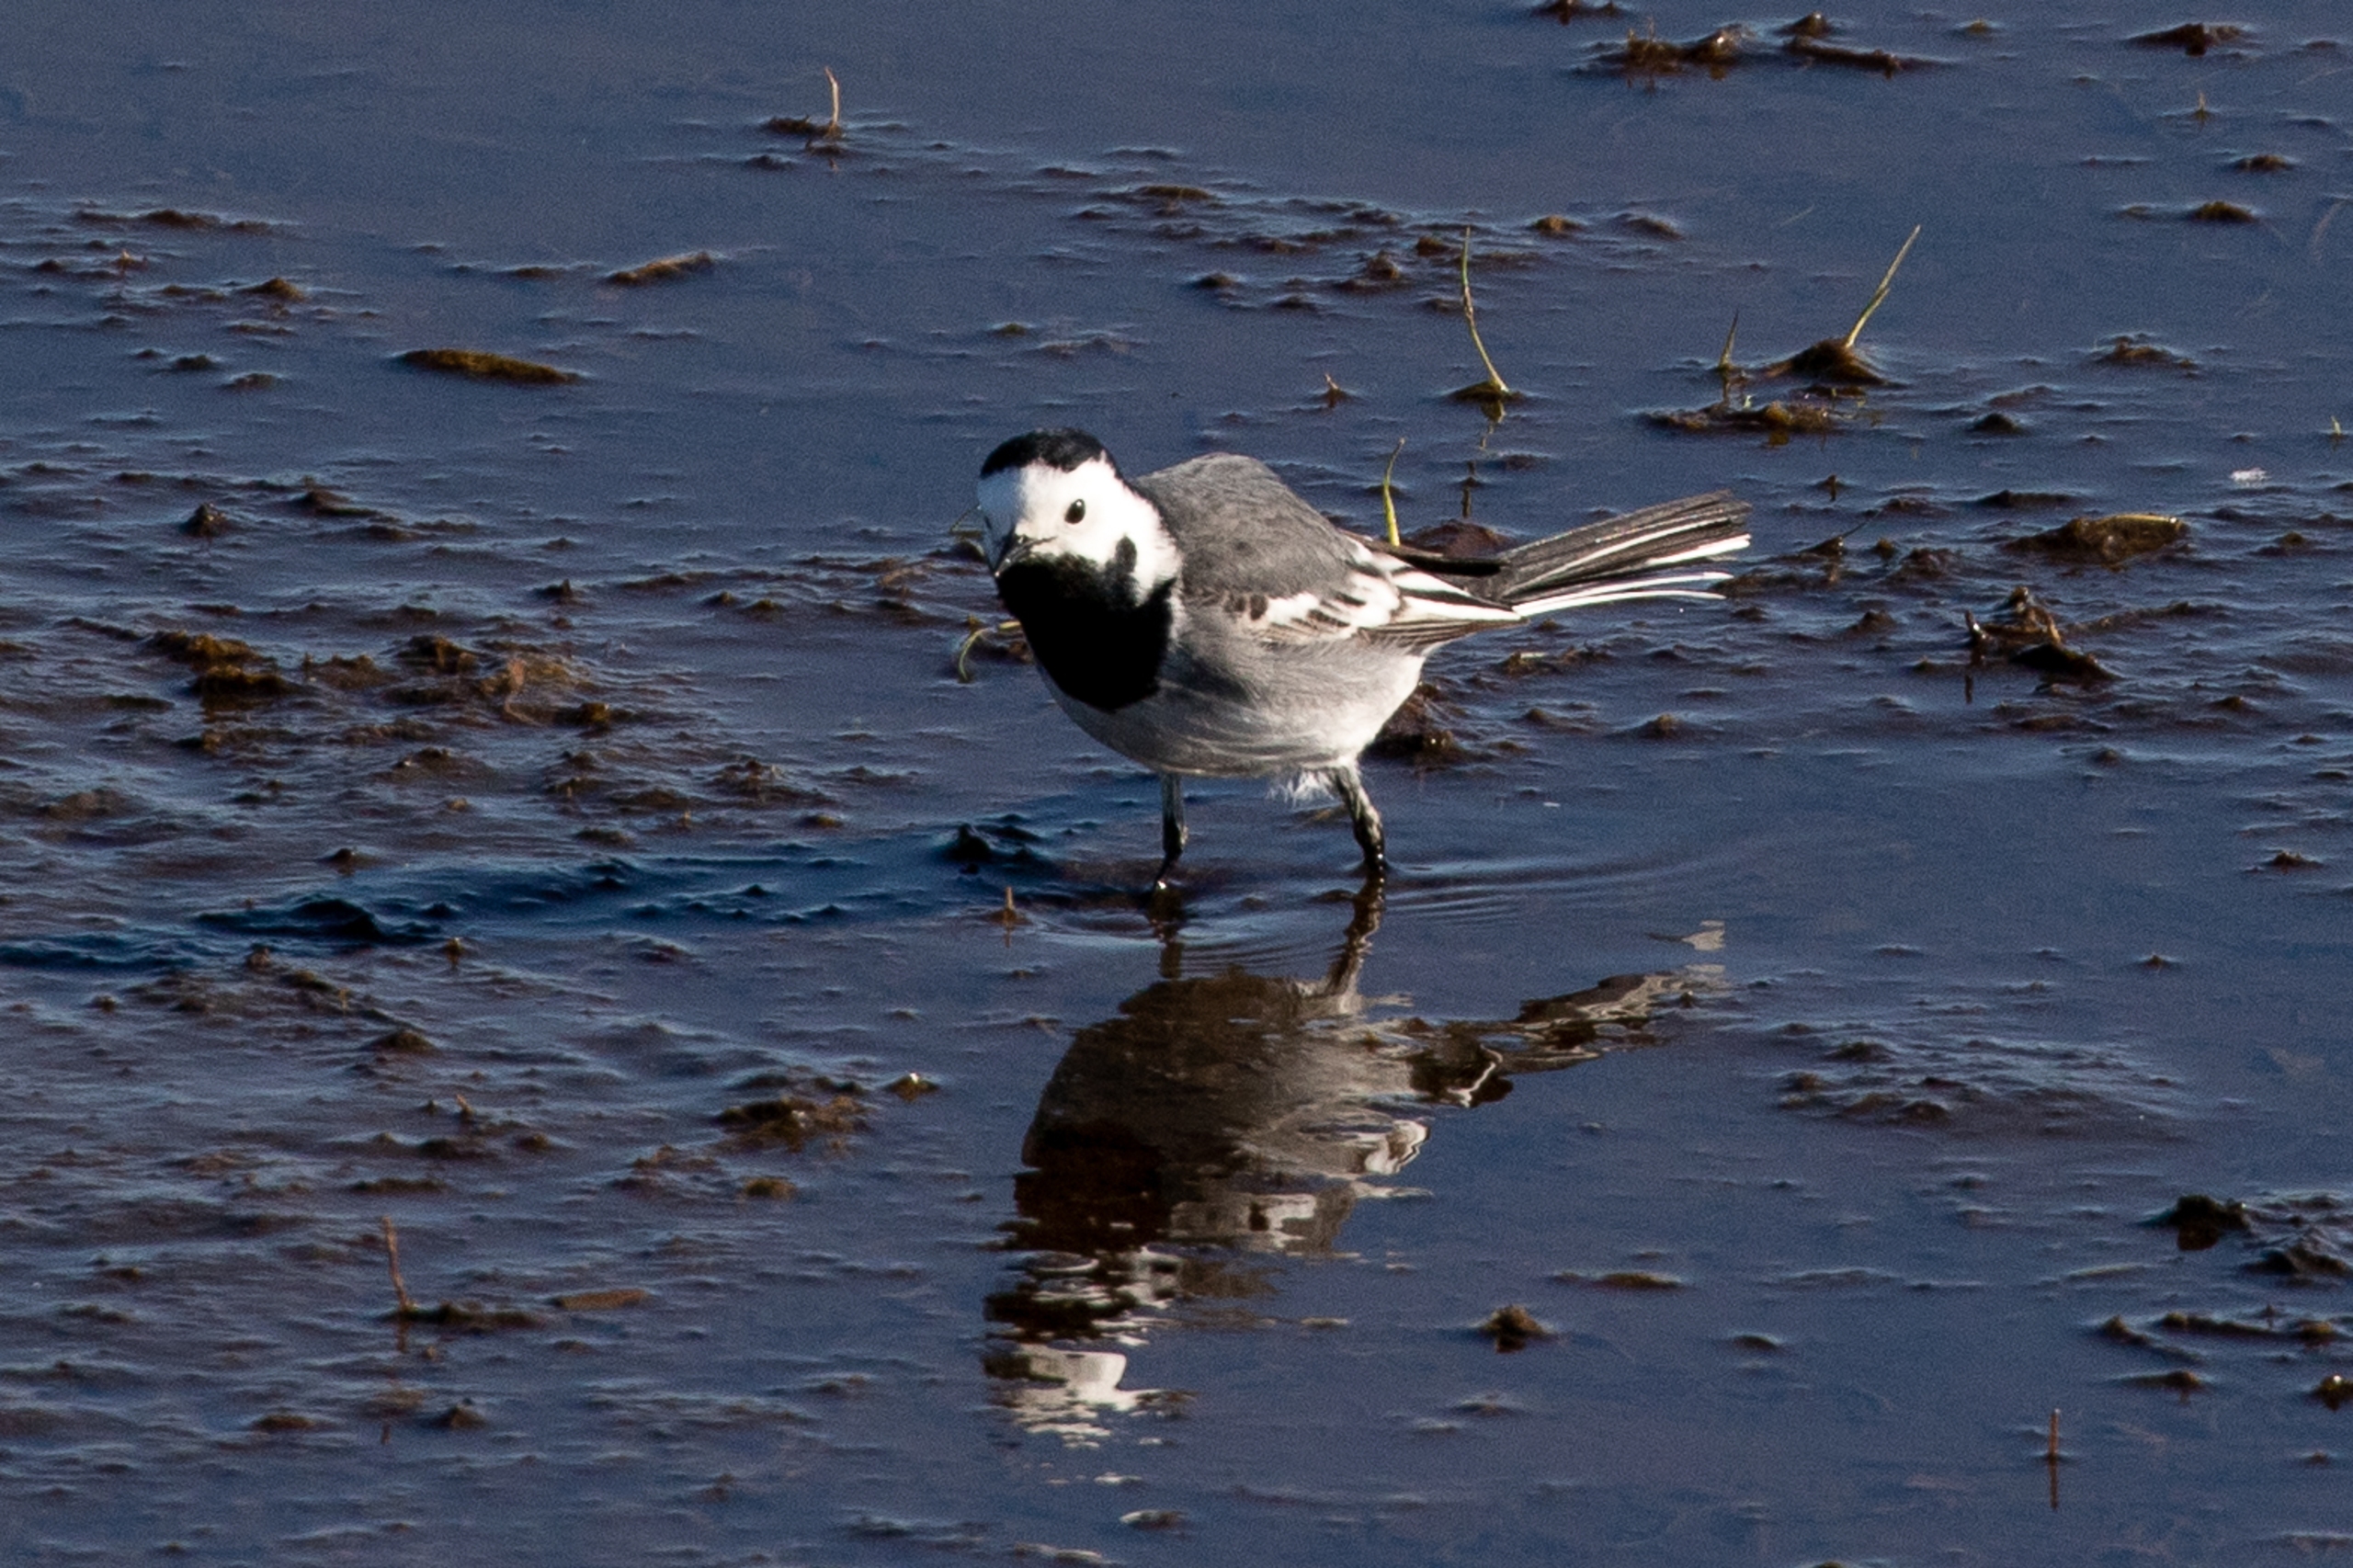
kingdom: Animalia
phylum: Chordata
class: Aves
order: Passeriformes
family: Motacillidae
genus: Motacilla
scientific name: Motacilla alba
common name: Hvid vipstjert
